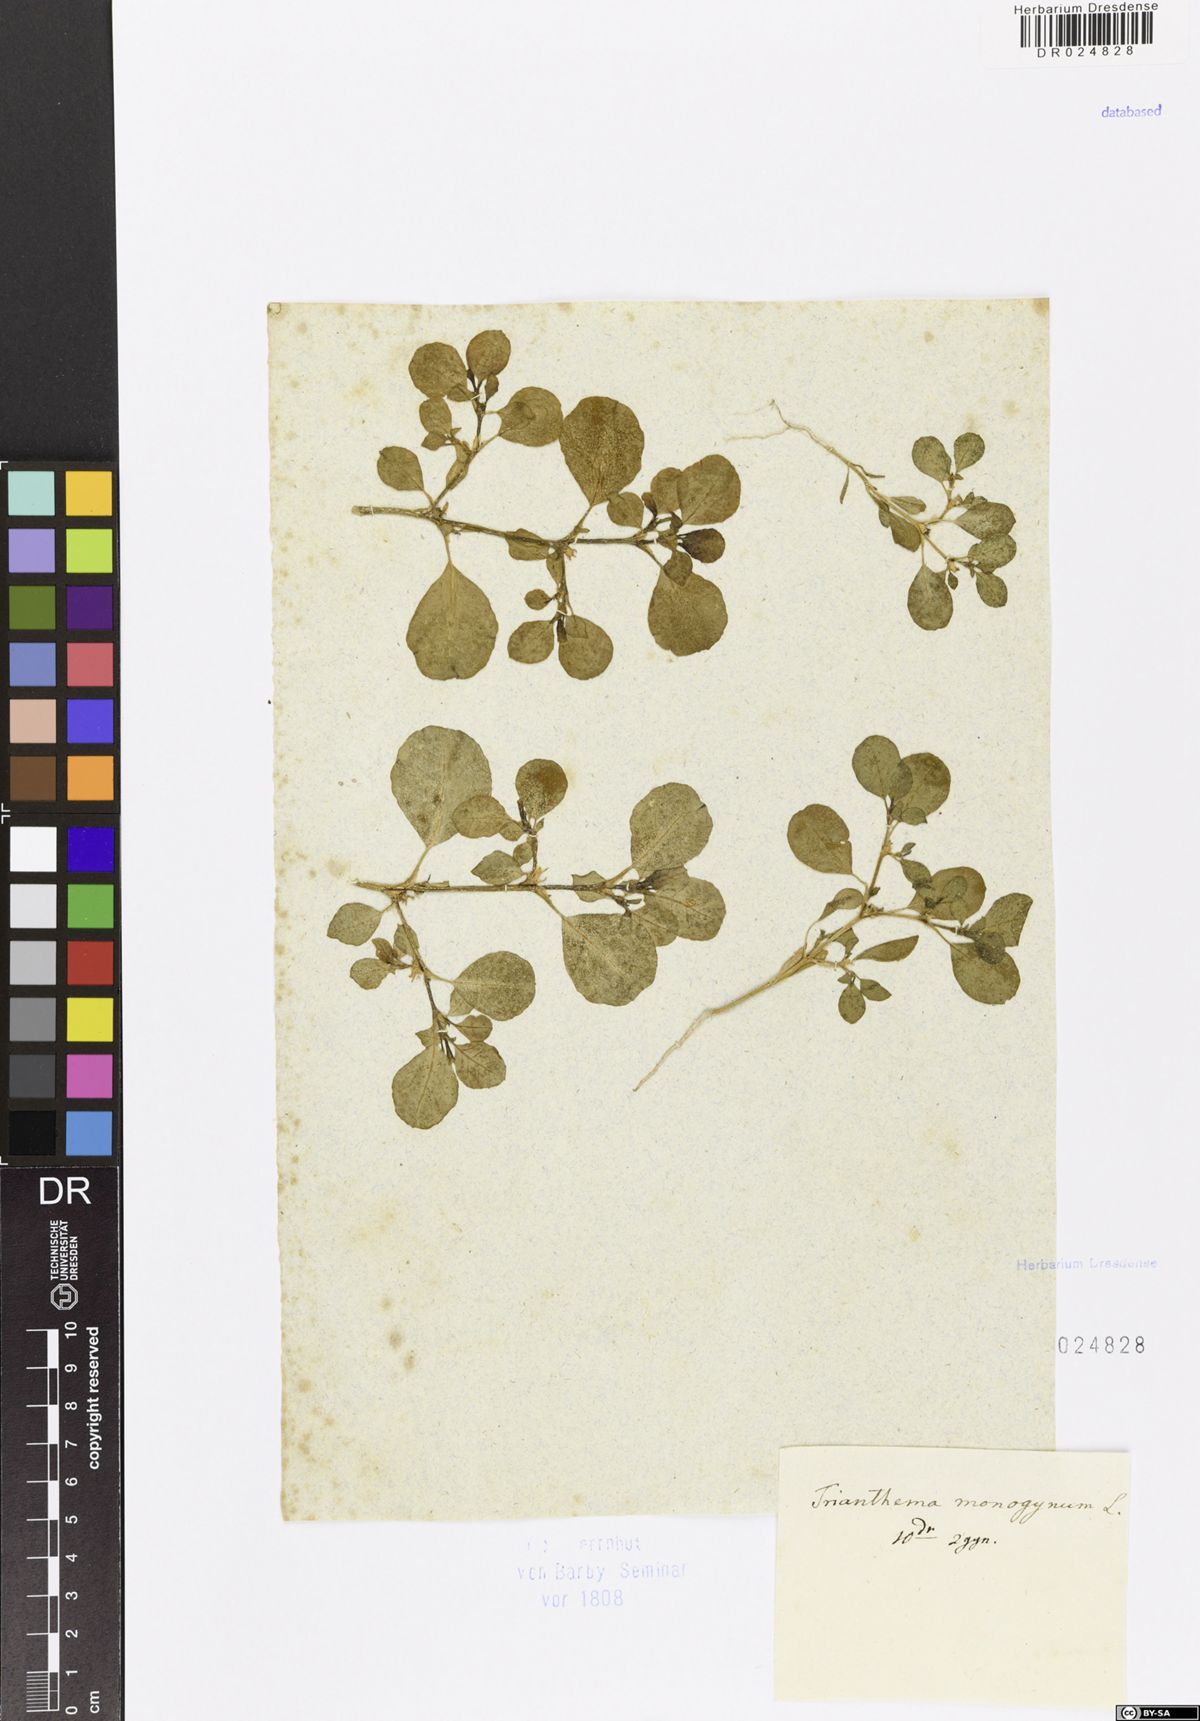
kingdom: Plantae
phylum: Tracheophyta
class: Magnoliopsida
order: Caryophyllales
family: Aizoaceae
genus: Trianthema
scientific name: Trianthema portulacastrum
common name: Desert horsepurslane
